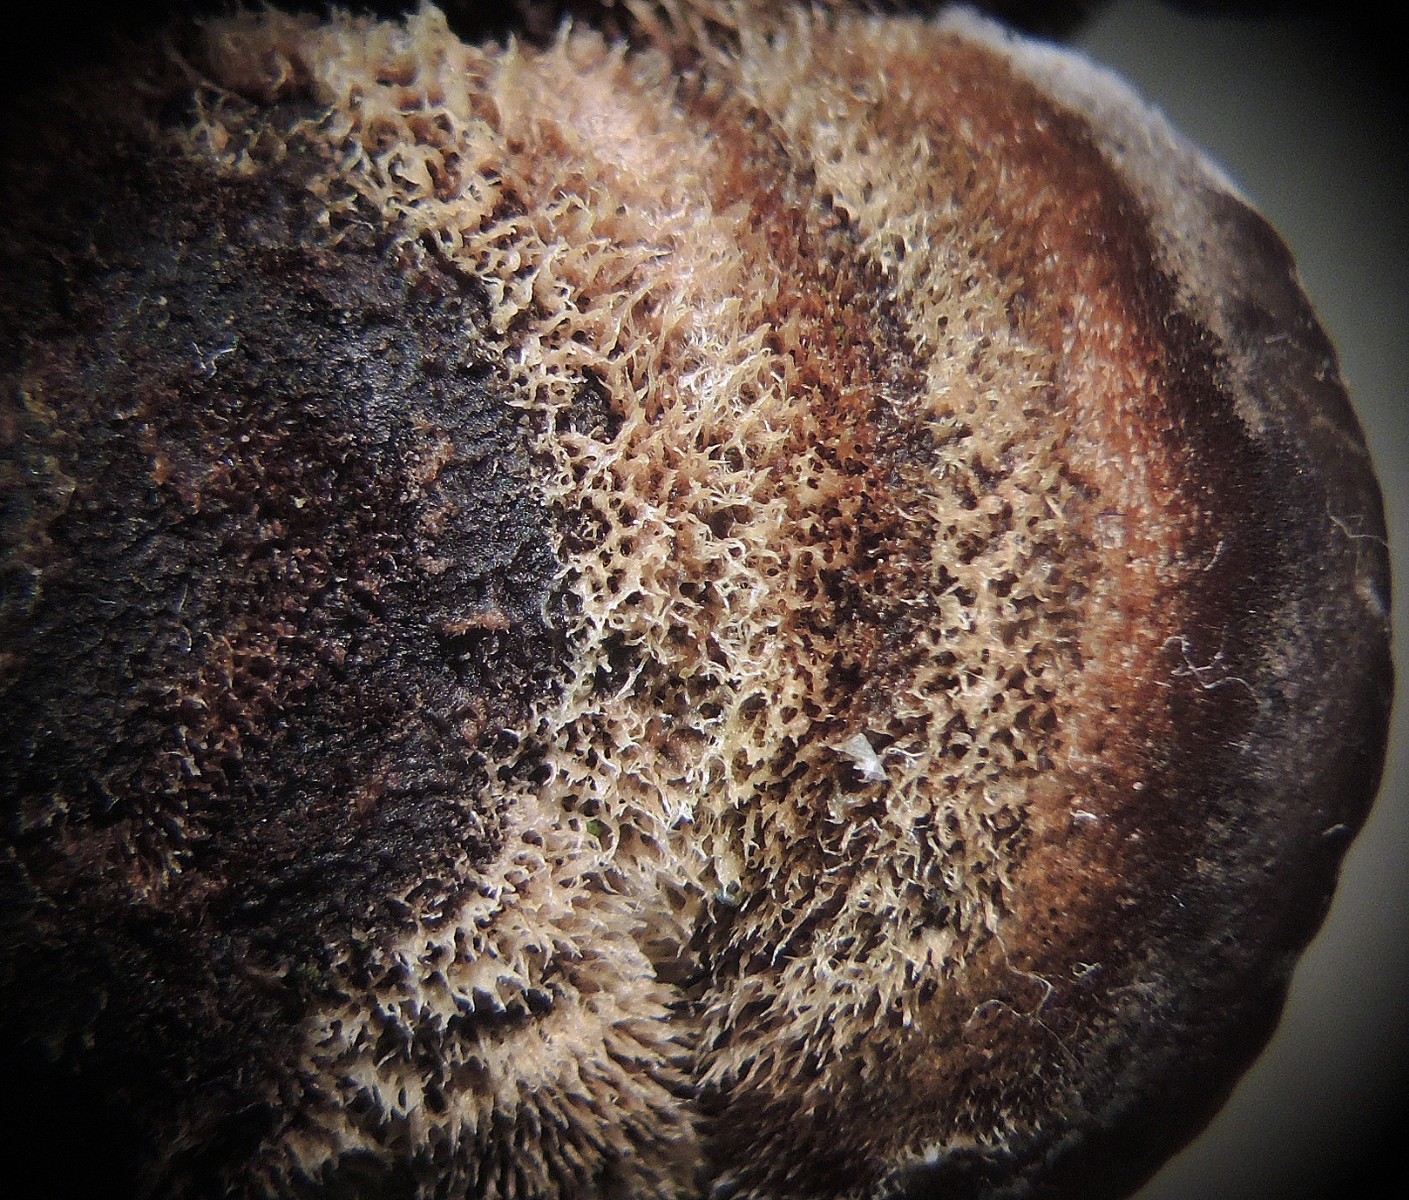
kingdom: Fungi
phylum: Basidiomycota
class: Agaricomycetes
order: Auriculariales
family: Auriculariaceae
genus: Auricularia
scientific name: Auricularia mesenterica
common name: håret judasøre
